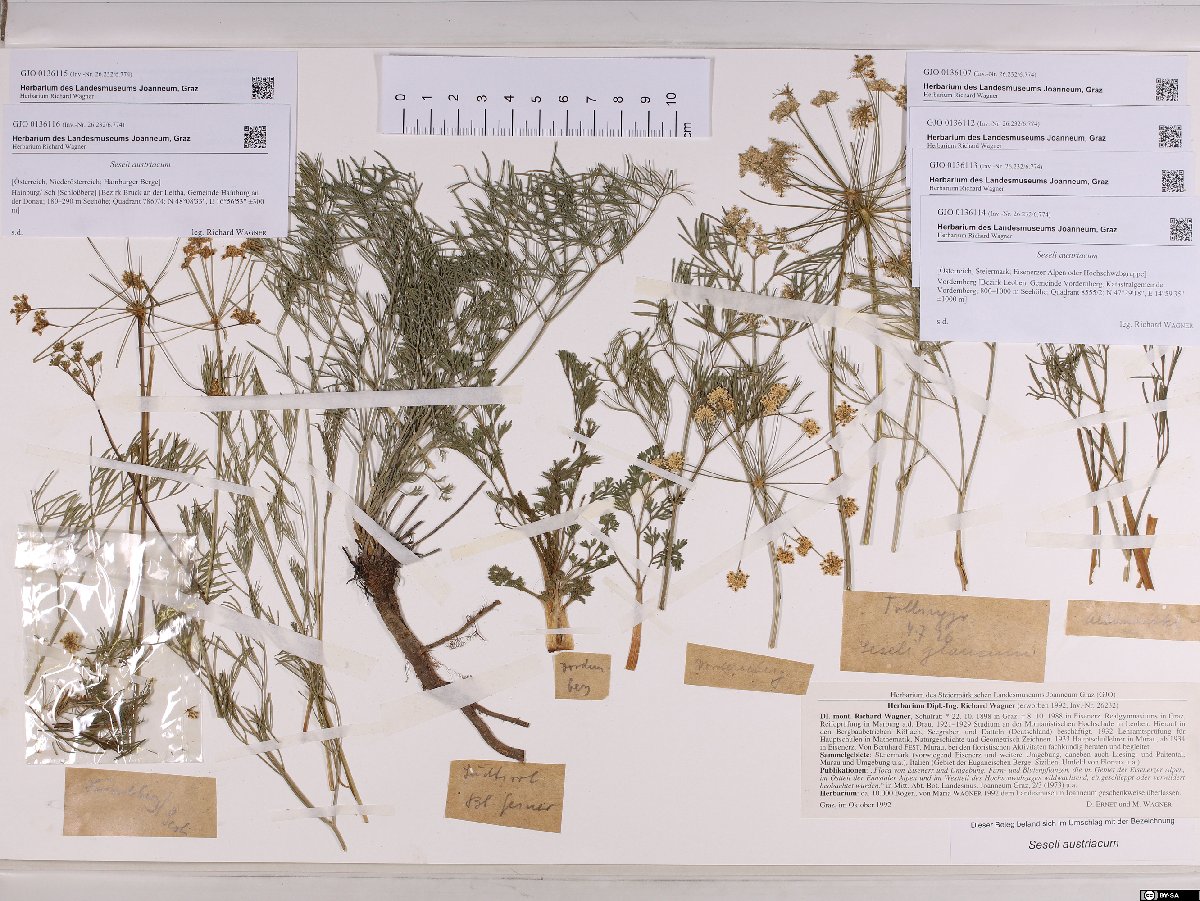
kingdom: Plantae
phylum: Tracheophyta
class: Magnoliopsida
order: Apiales
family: Apiaceae
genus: Seseli
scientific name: Seseli austriacum
